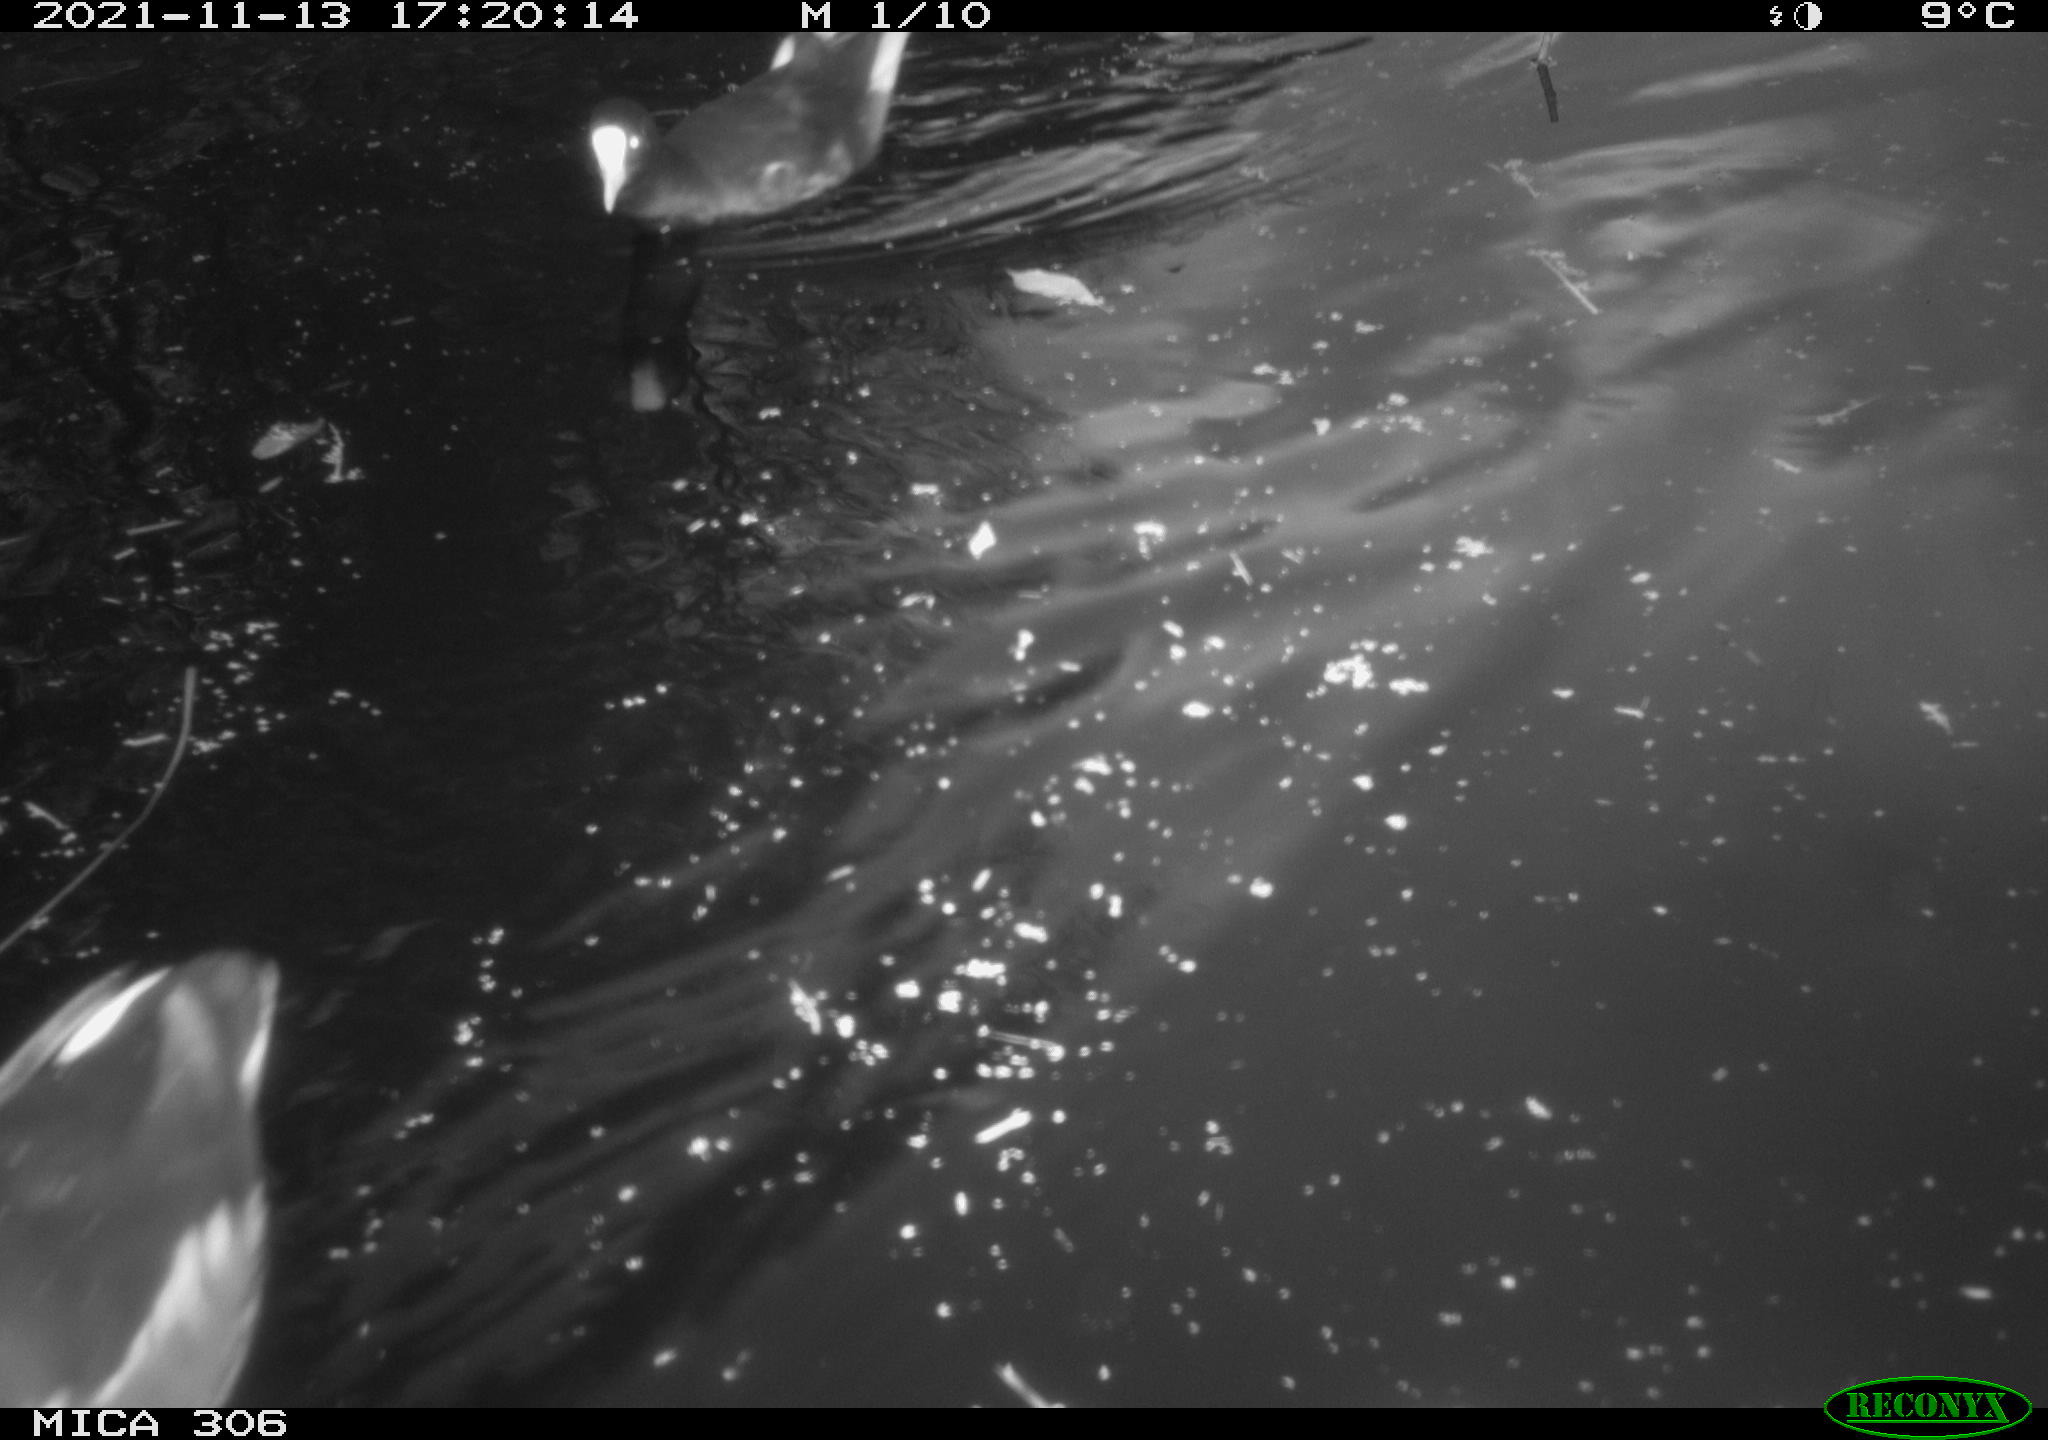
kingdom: Animalia
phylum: Chordata
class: Aves
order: Gruiformes
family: Rallidae
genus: Fulica
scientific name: Fulica atra
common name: Eurasian coot
